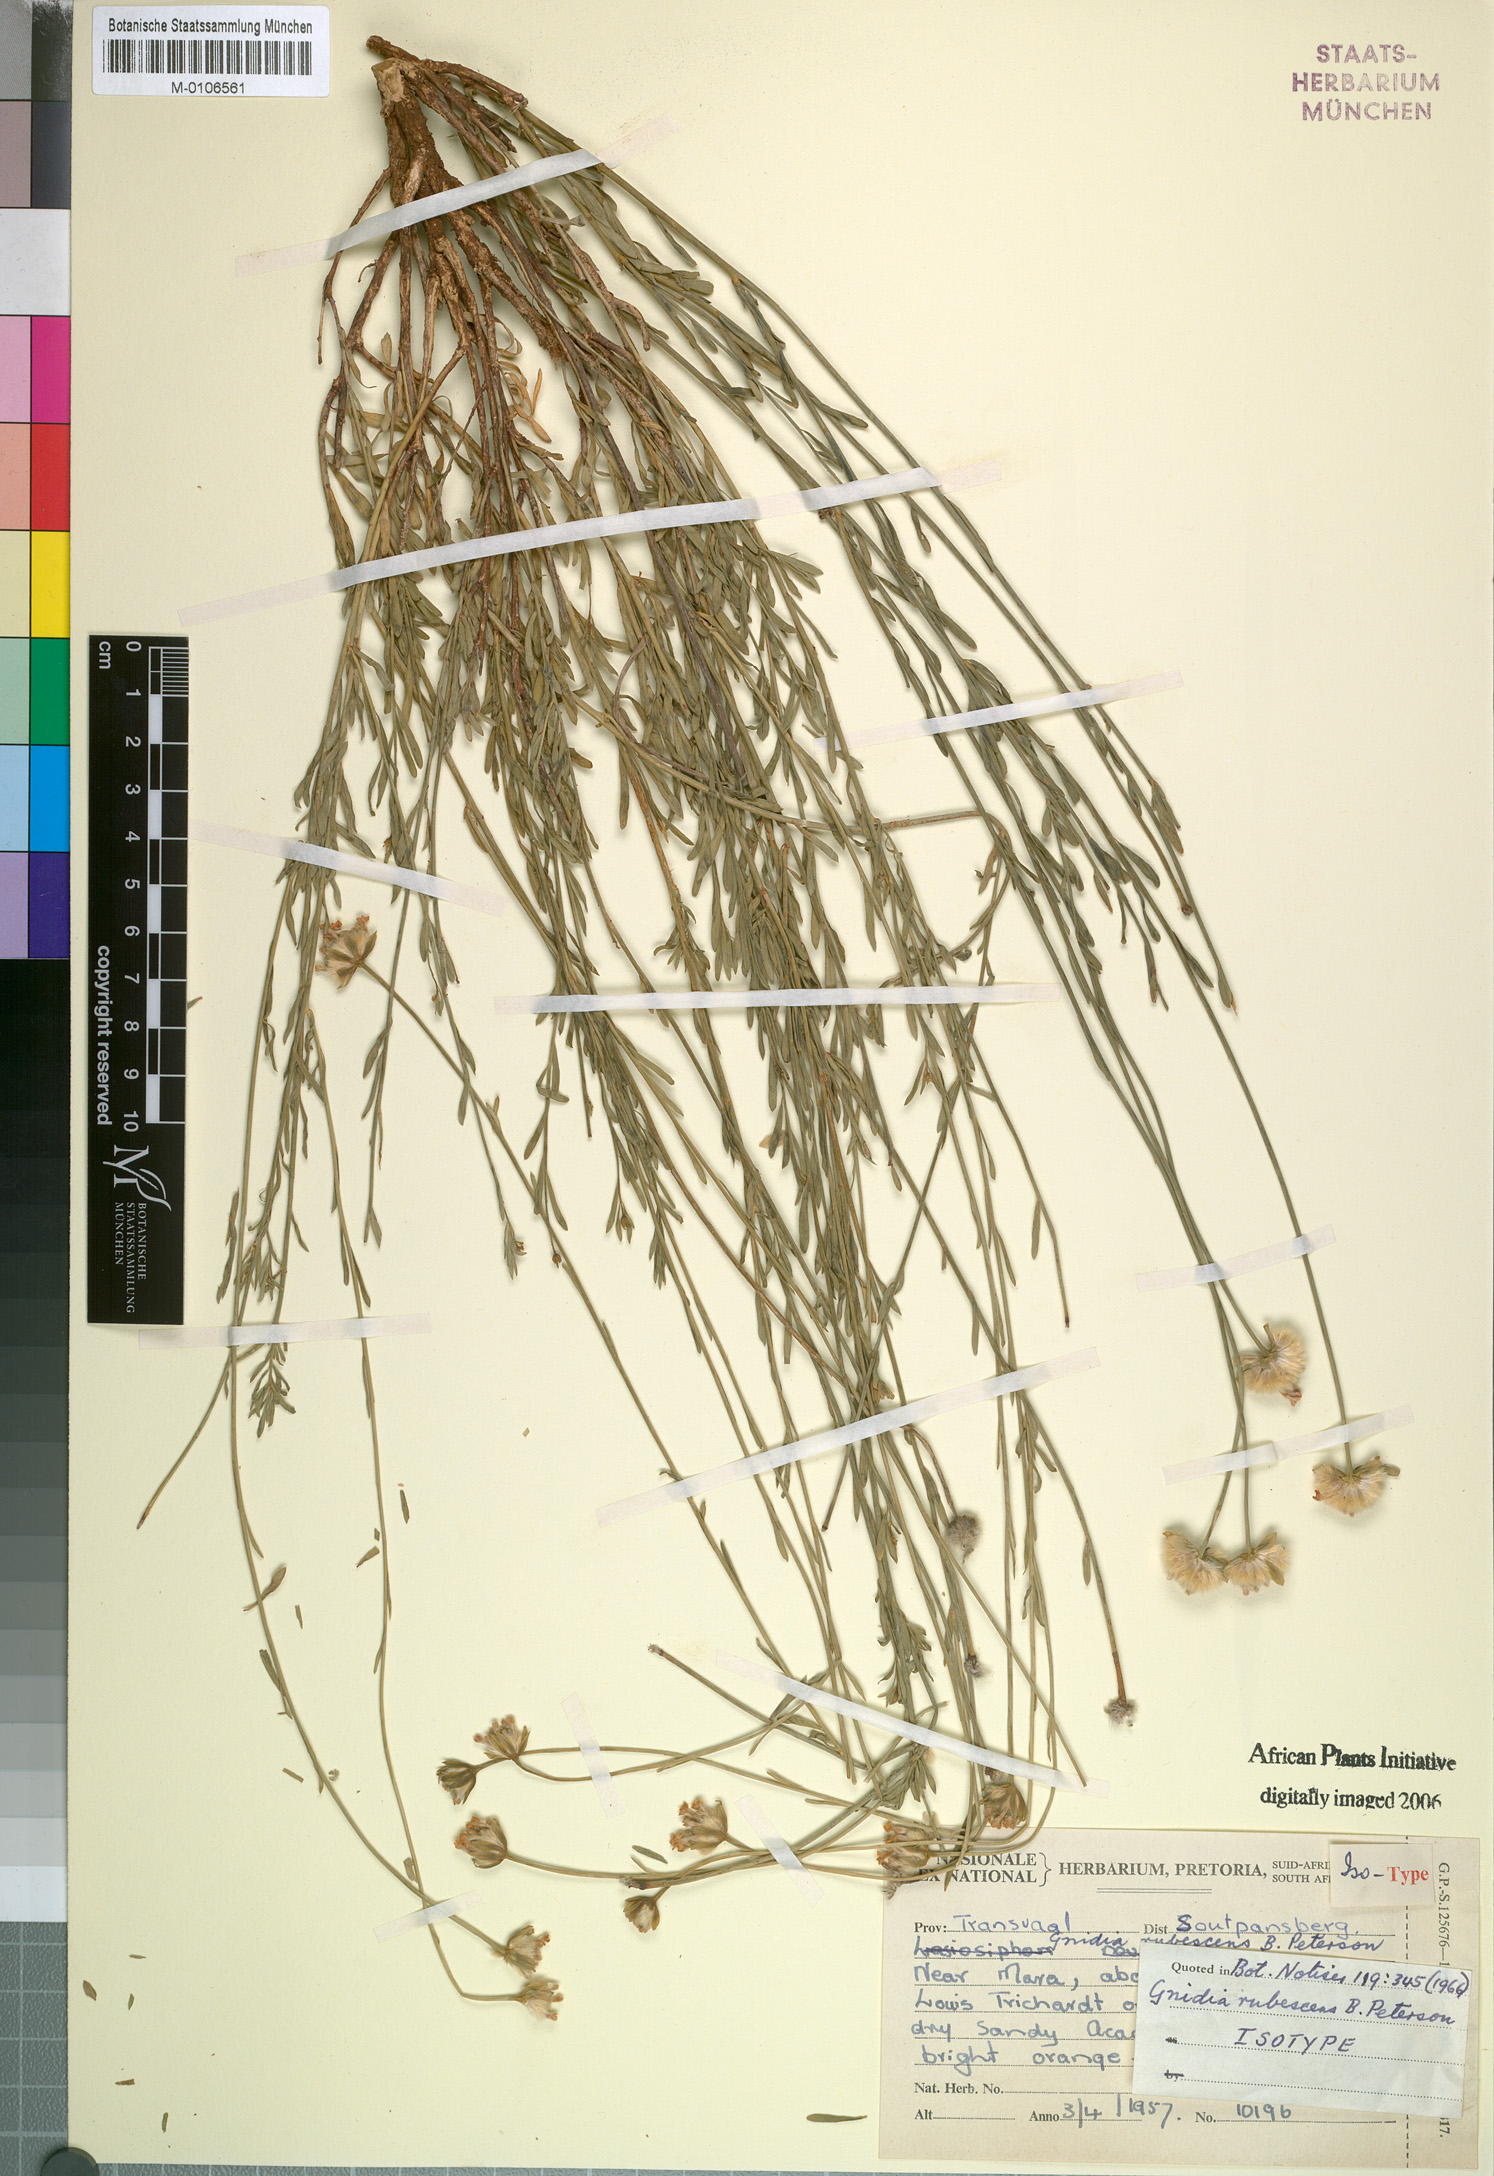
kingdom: Plantae
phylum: Tracheophyta
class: Magnoliopsida
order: Malvales
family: Thymelaeaceae
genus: Gnidia
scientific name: Gnidia rubescens
